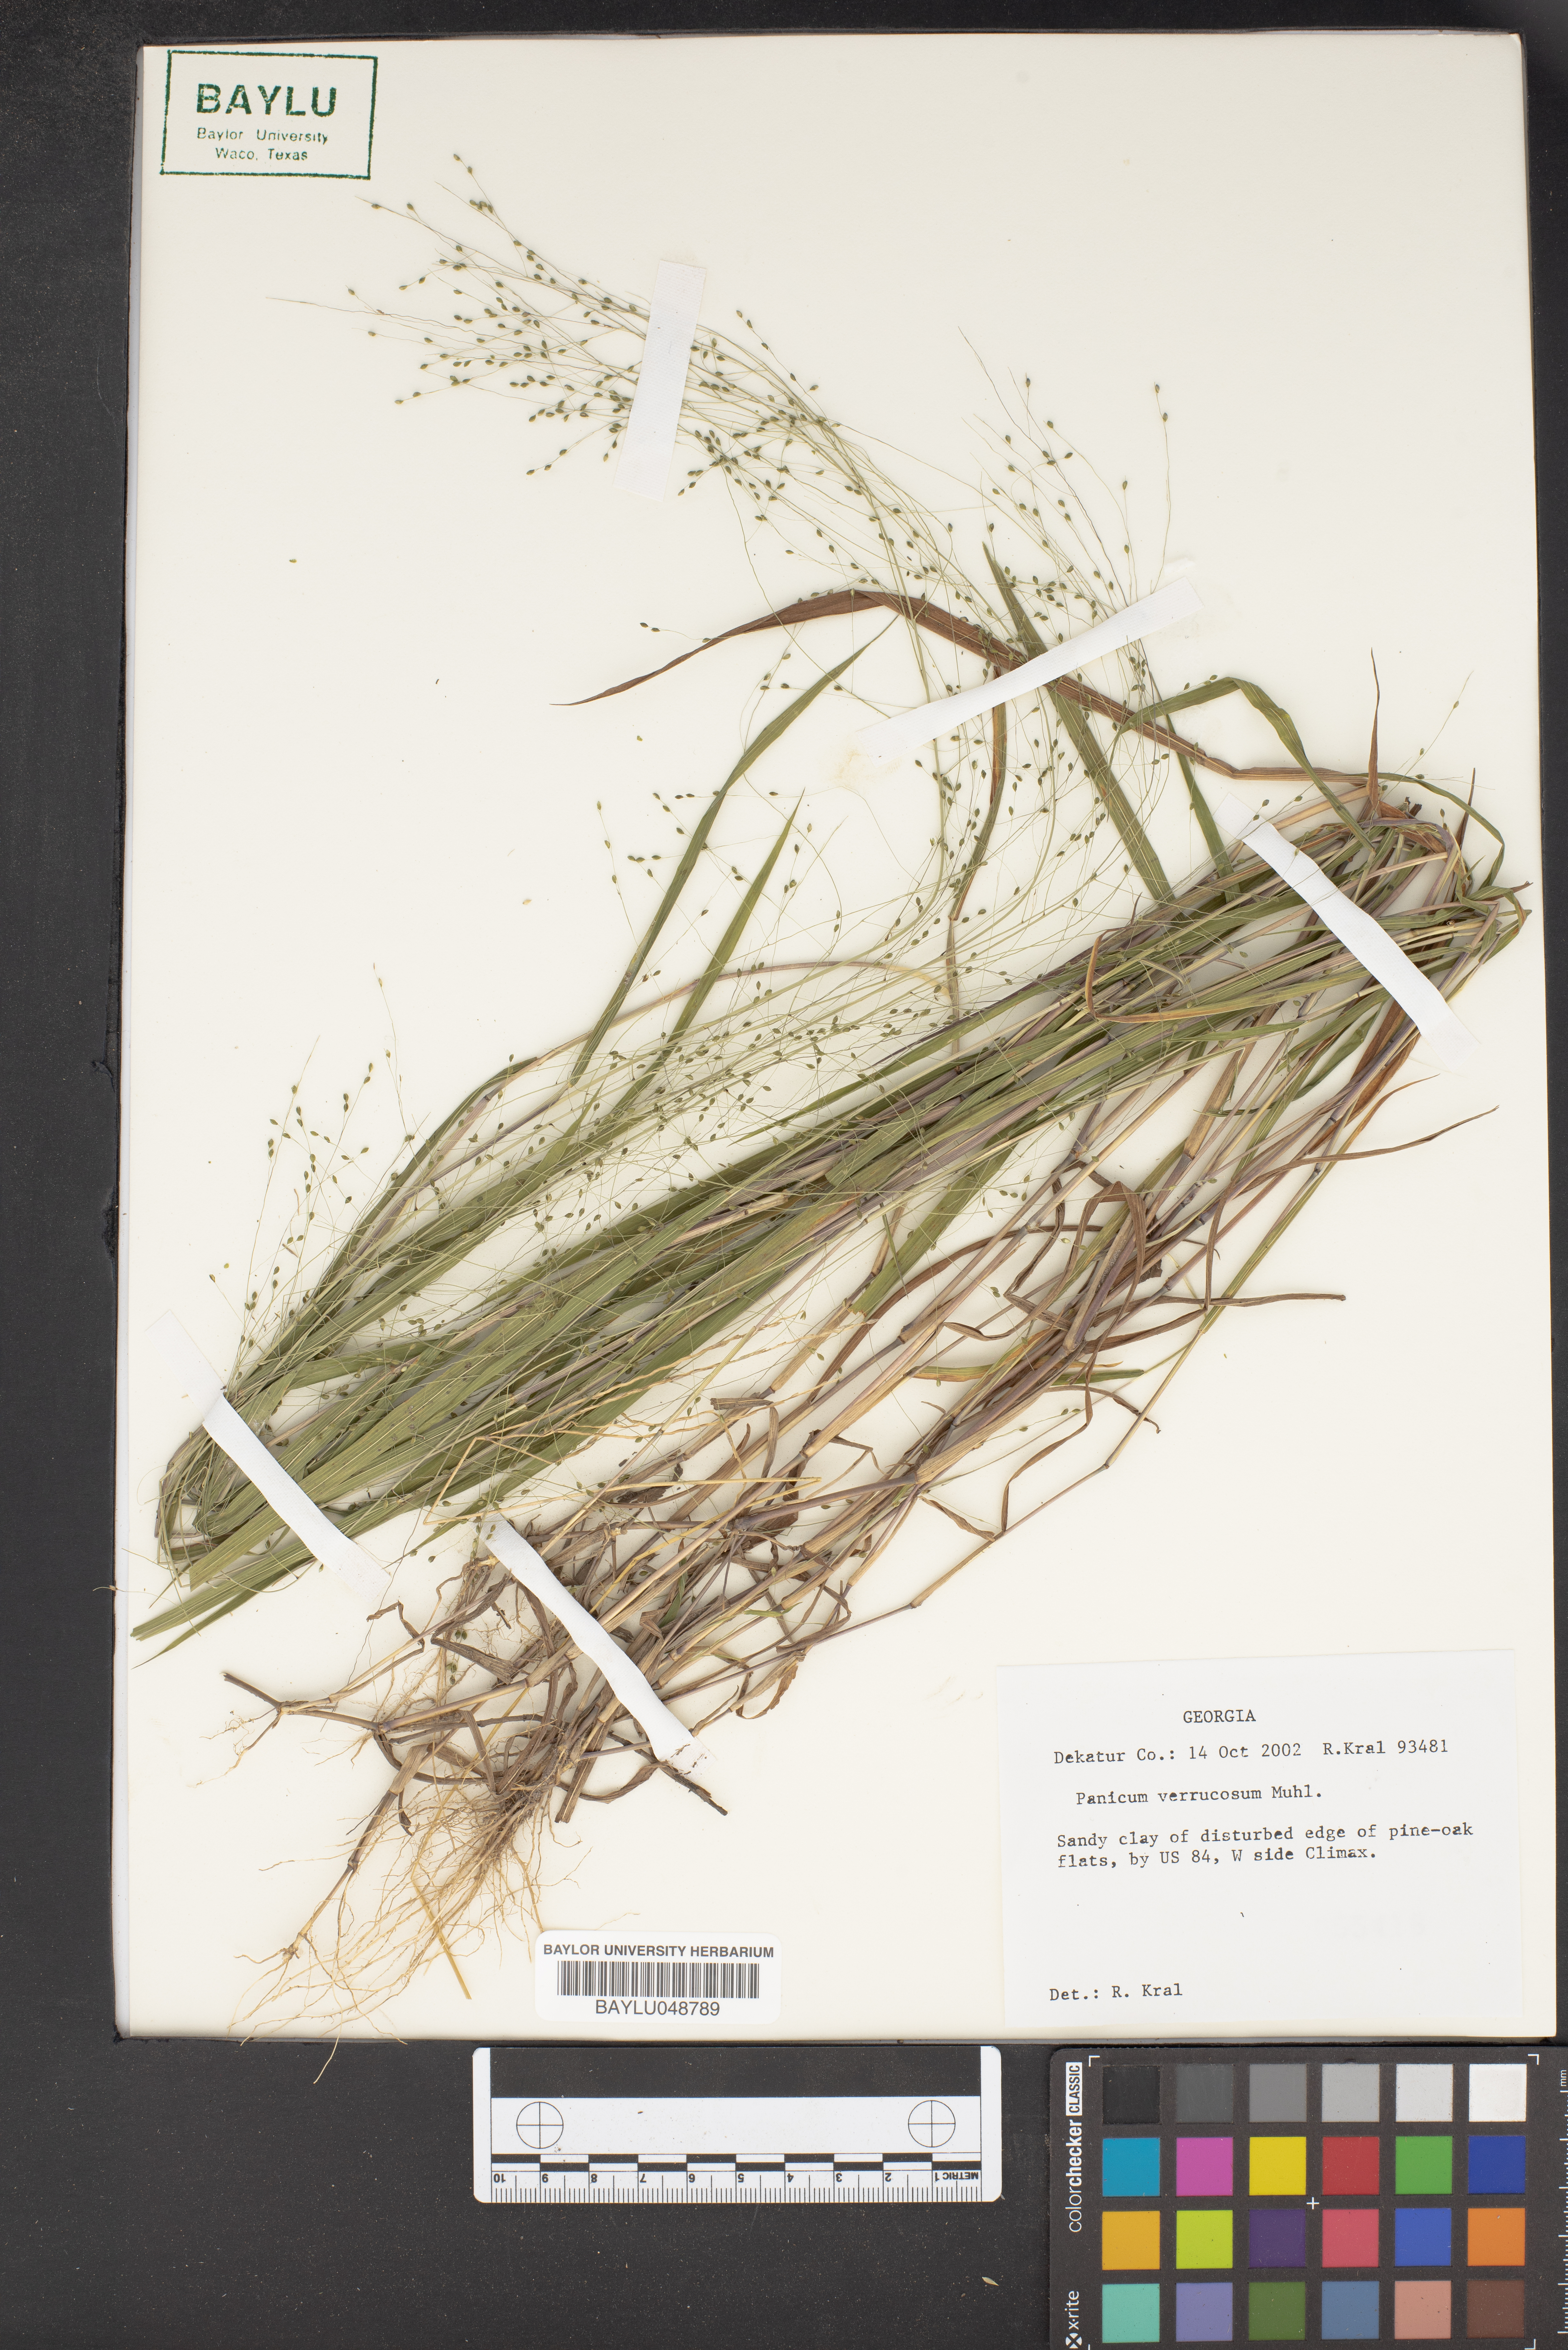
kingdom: Plantae
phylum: Tracheophyta
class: Liliopsida
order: Poales
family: Poaceae
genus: Kellochloa
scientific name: Kellochloa verrucosa
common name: Warty panic grass
